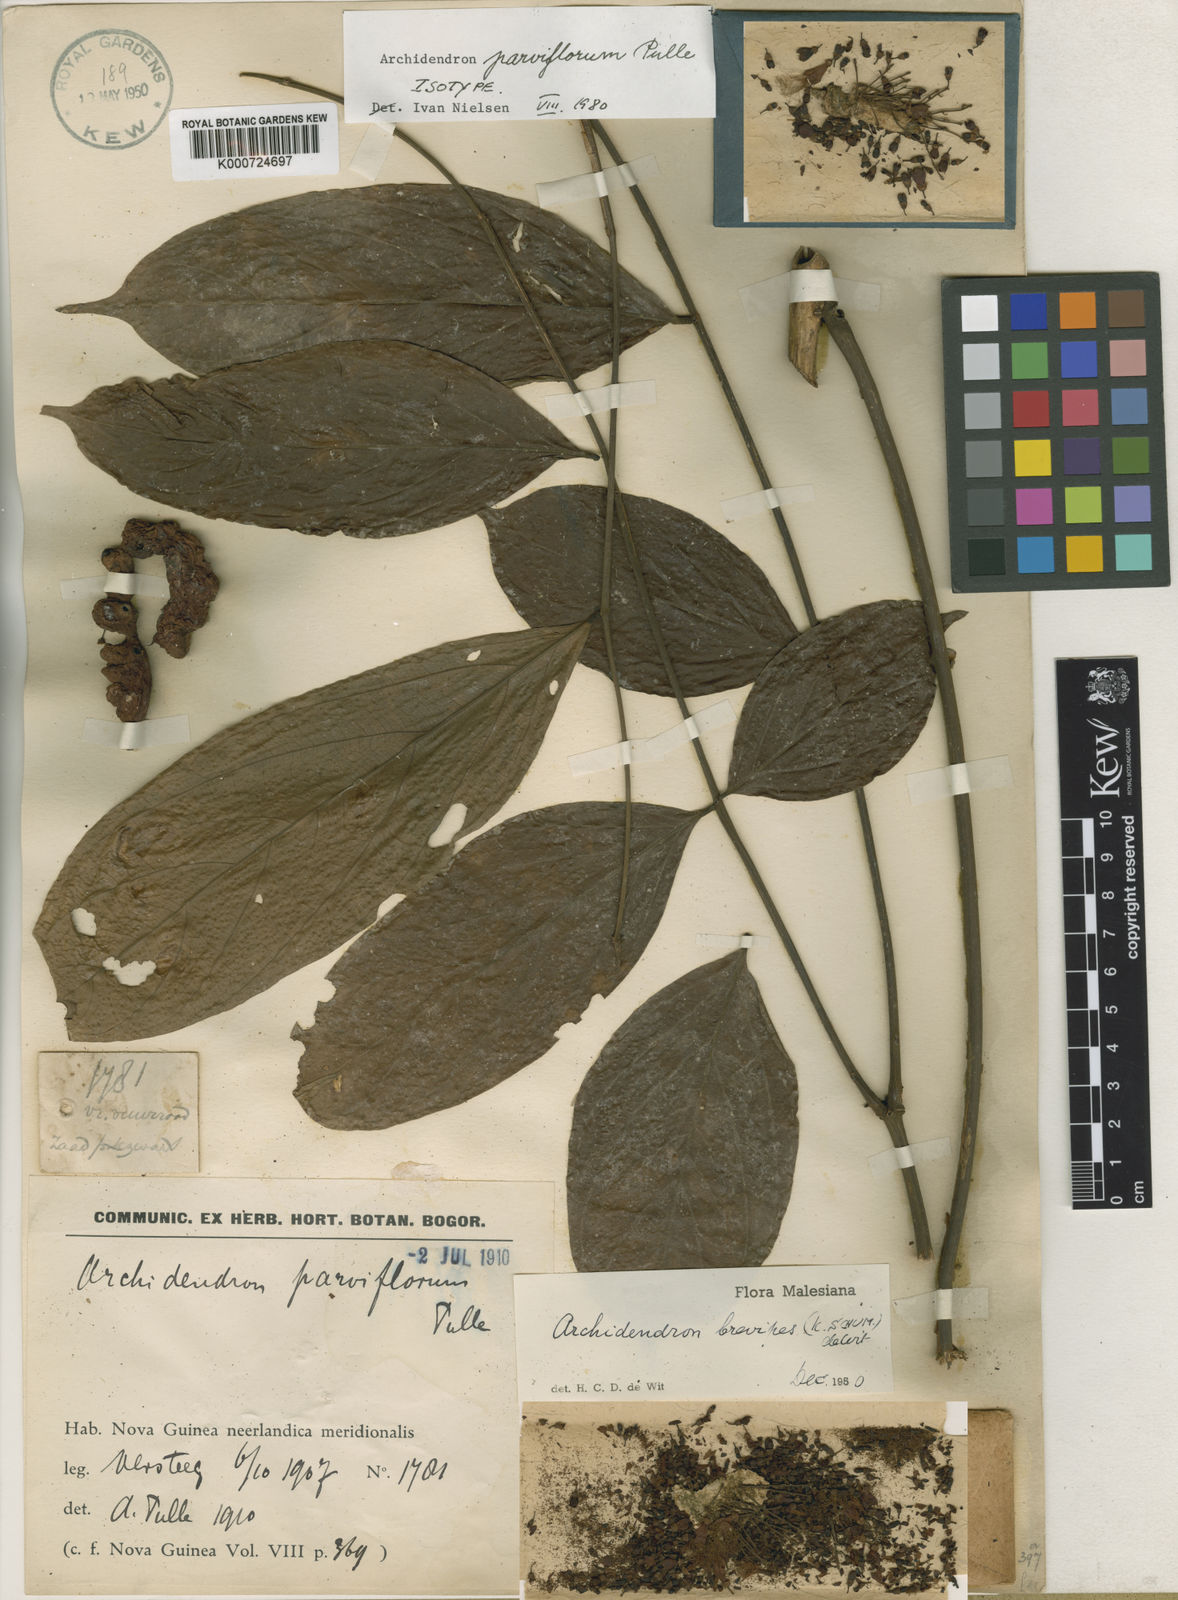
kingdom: Plantae
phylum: Tracheophyta
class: Magnoliopsida
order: Fabales
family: Fabaceae
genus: Archidendron
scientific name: Archidendron brevipes
